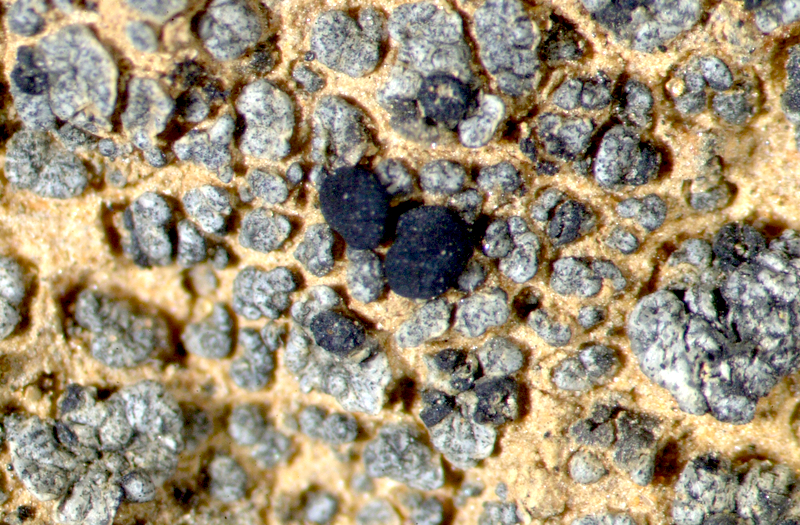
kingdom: Fungi
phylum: Ascomycota
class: Lecanoromycetes
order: Ostropales
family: Graphidaceae
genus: Diploschistes
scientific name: Diploschistes hensseniae
